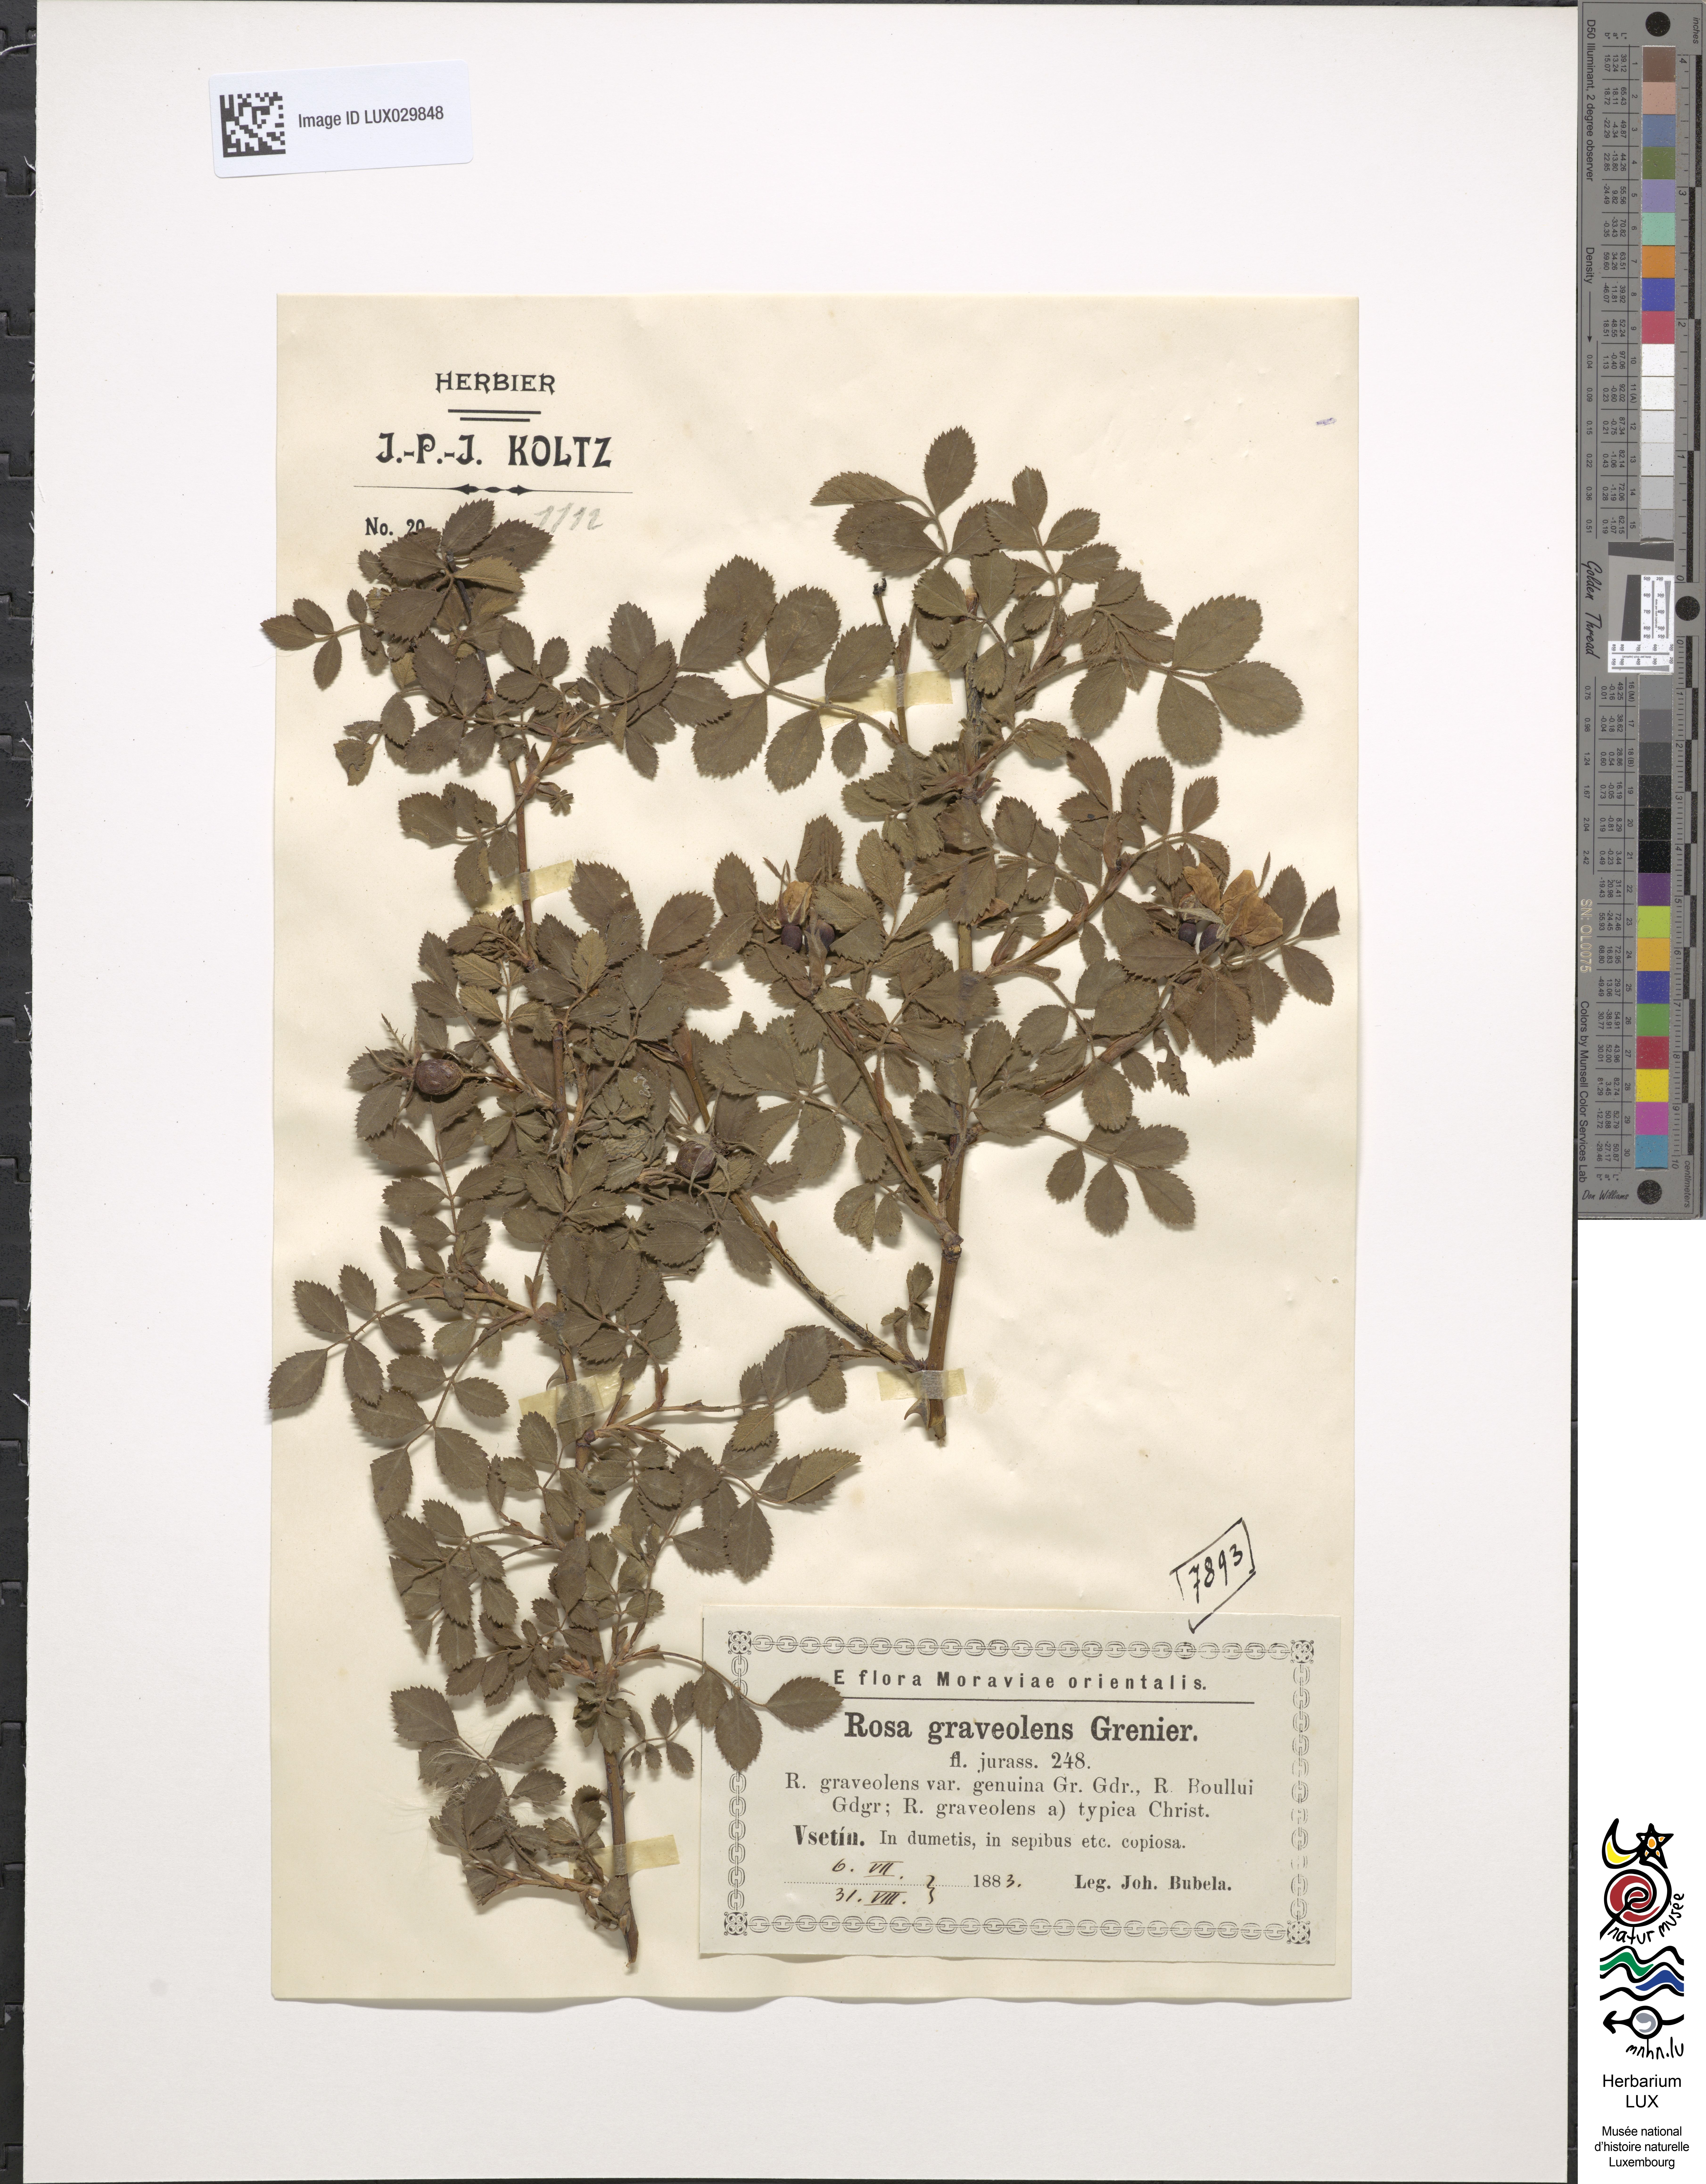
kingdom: Plantae
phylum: Tracheophyta
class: Magnoliopsida
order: Rosales
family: Rosaceae
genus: Rosa
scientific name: Rosa inodora
